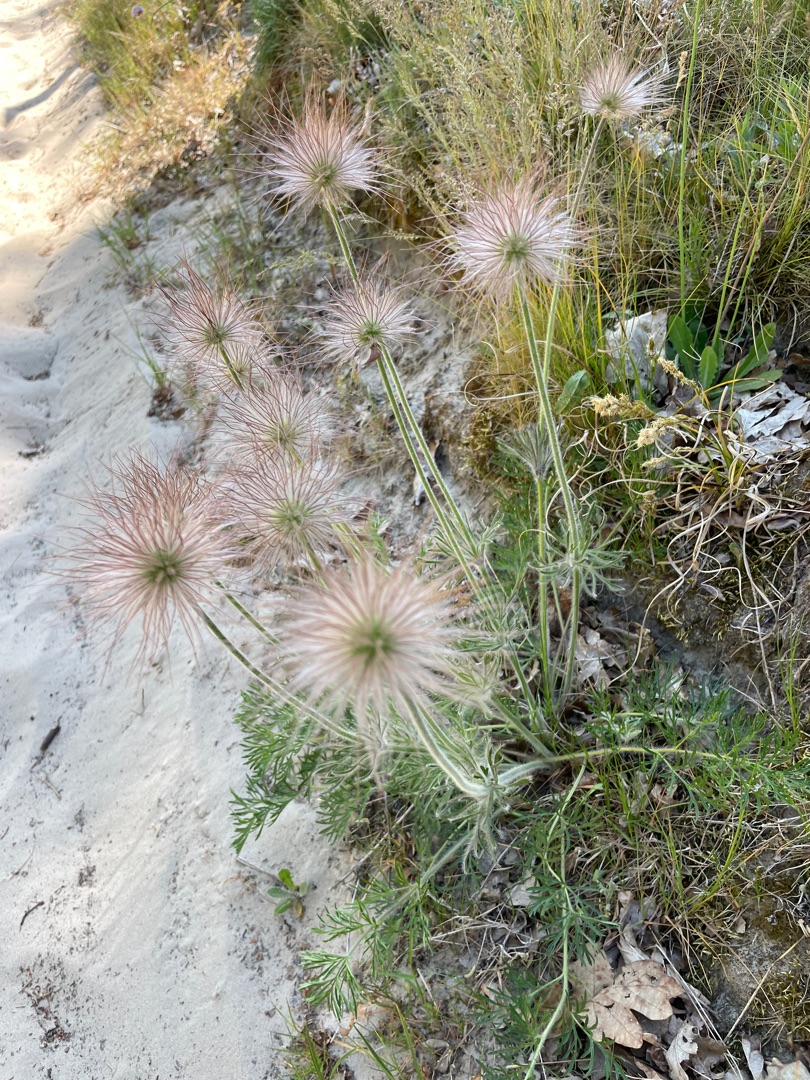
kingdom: Plantae
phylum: Tracheophyta
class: Magnoliopsida
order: Ranunculales
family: Ranunculaceae
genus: Pulsatilla
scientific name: Pulsatilla pratensis
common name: Nikkende kobjælde
